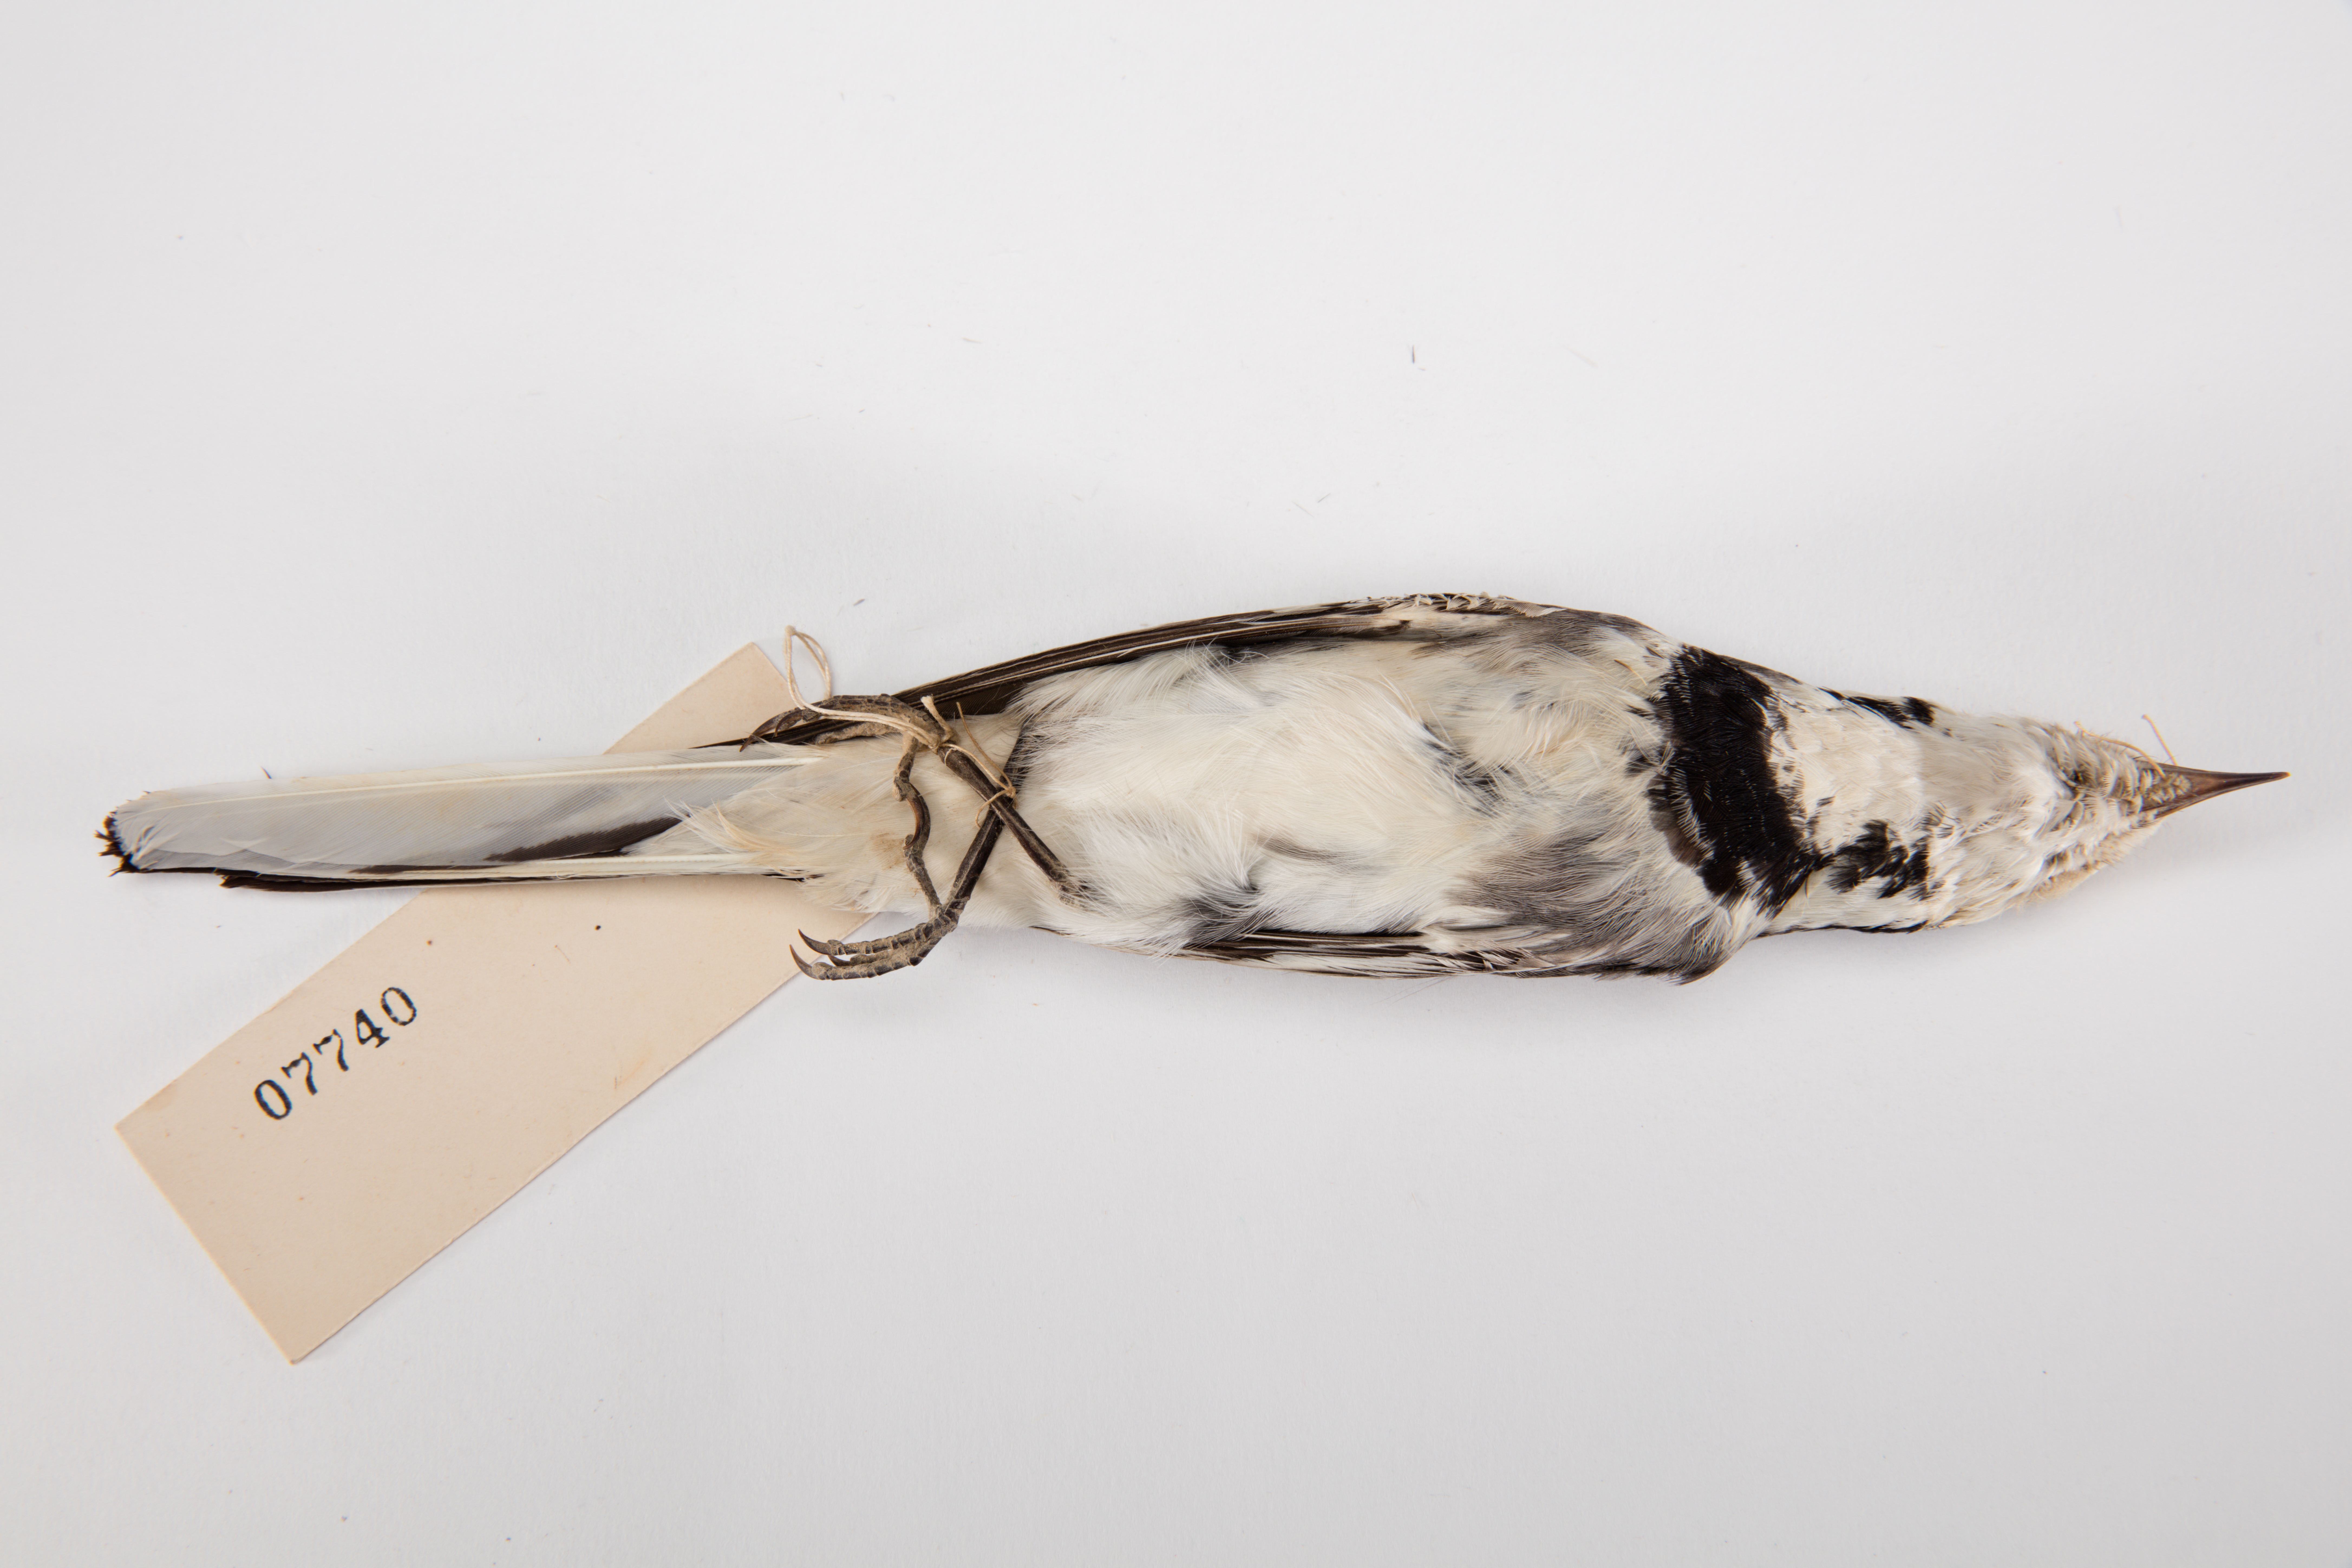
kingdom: Animalia
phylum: Chordata
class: Aves
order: Passeriformes
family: Motacillidae
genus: Motacilla
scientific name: Motacilla alba
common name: White wagtail
